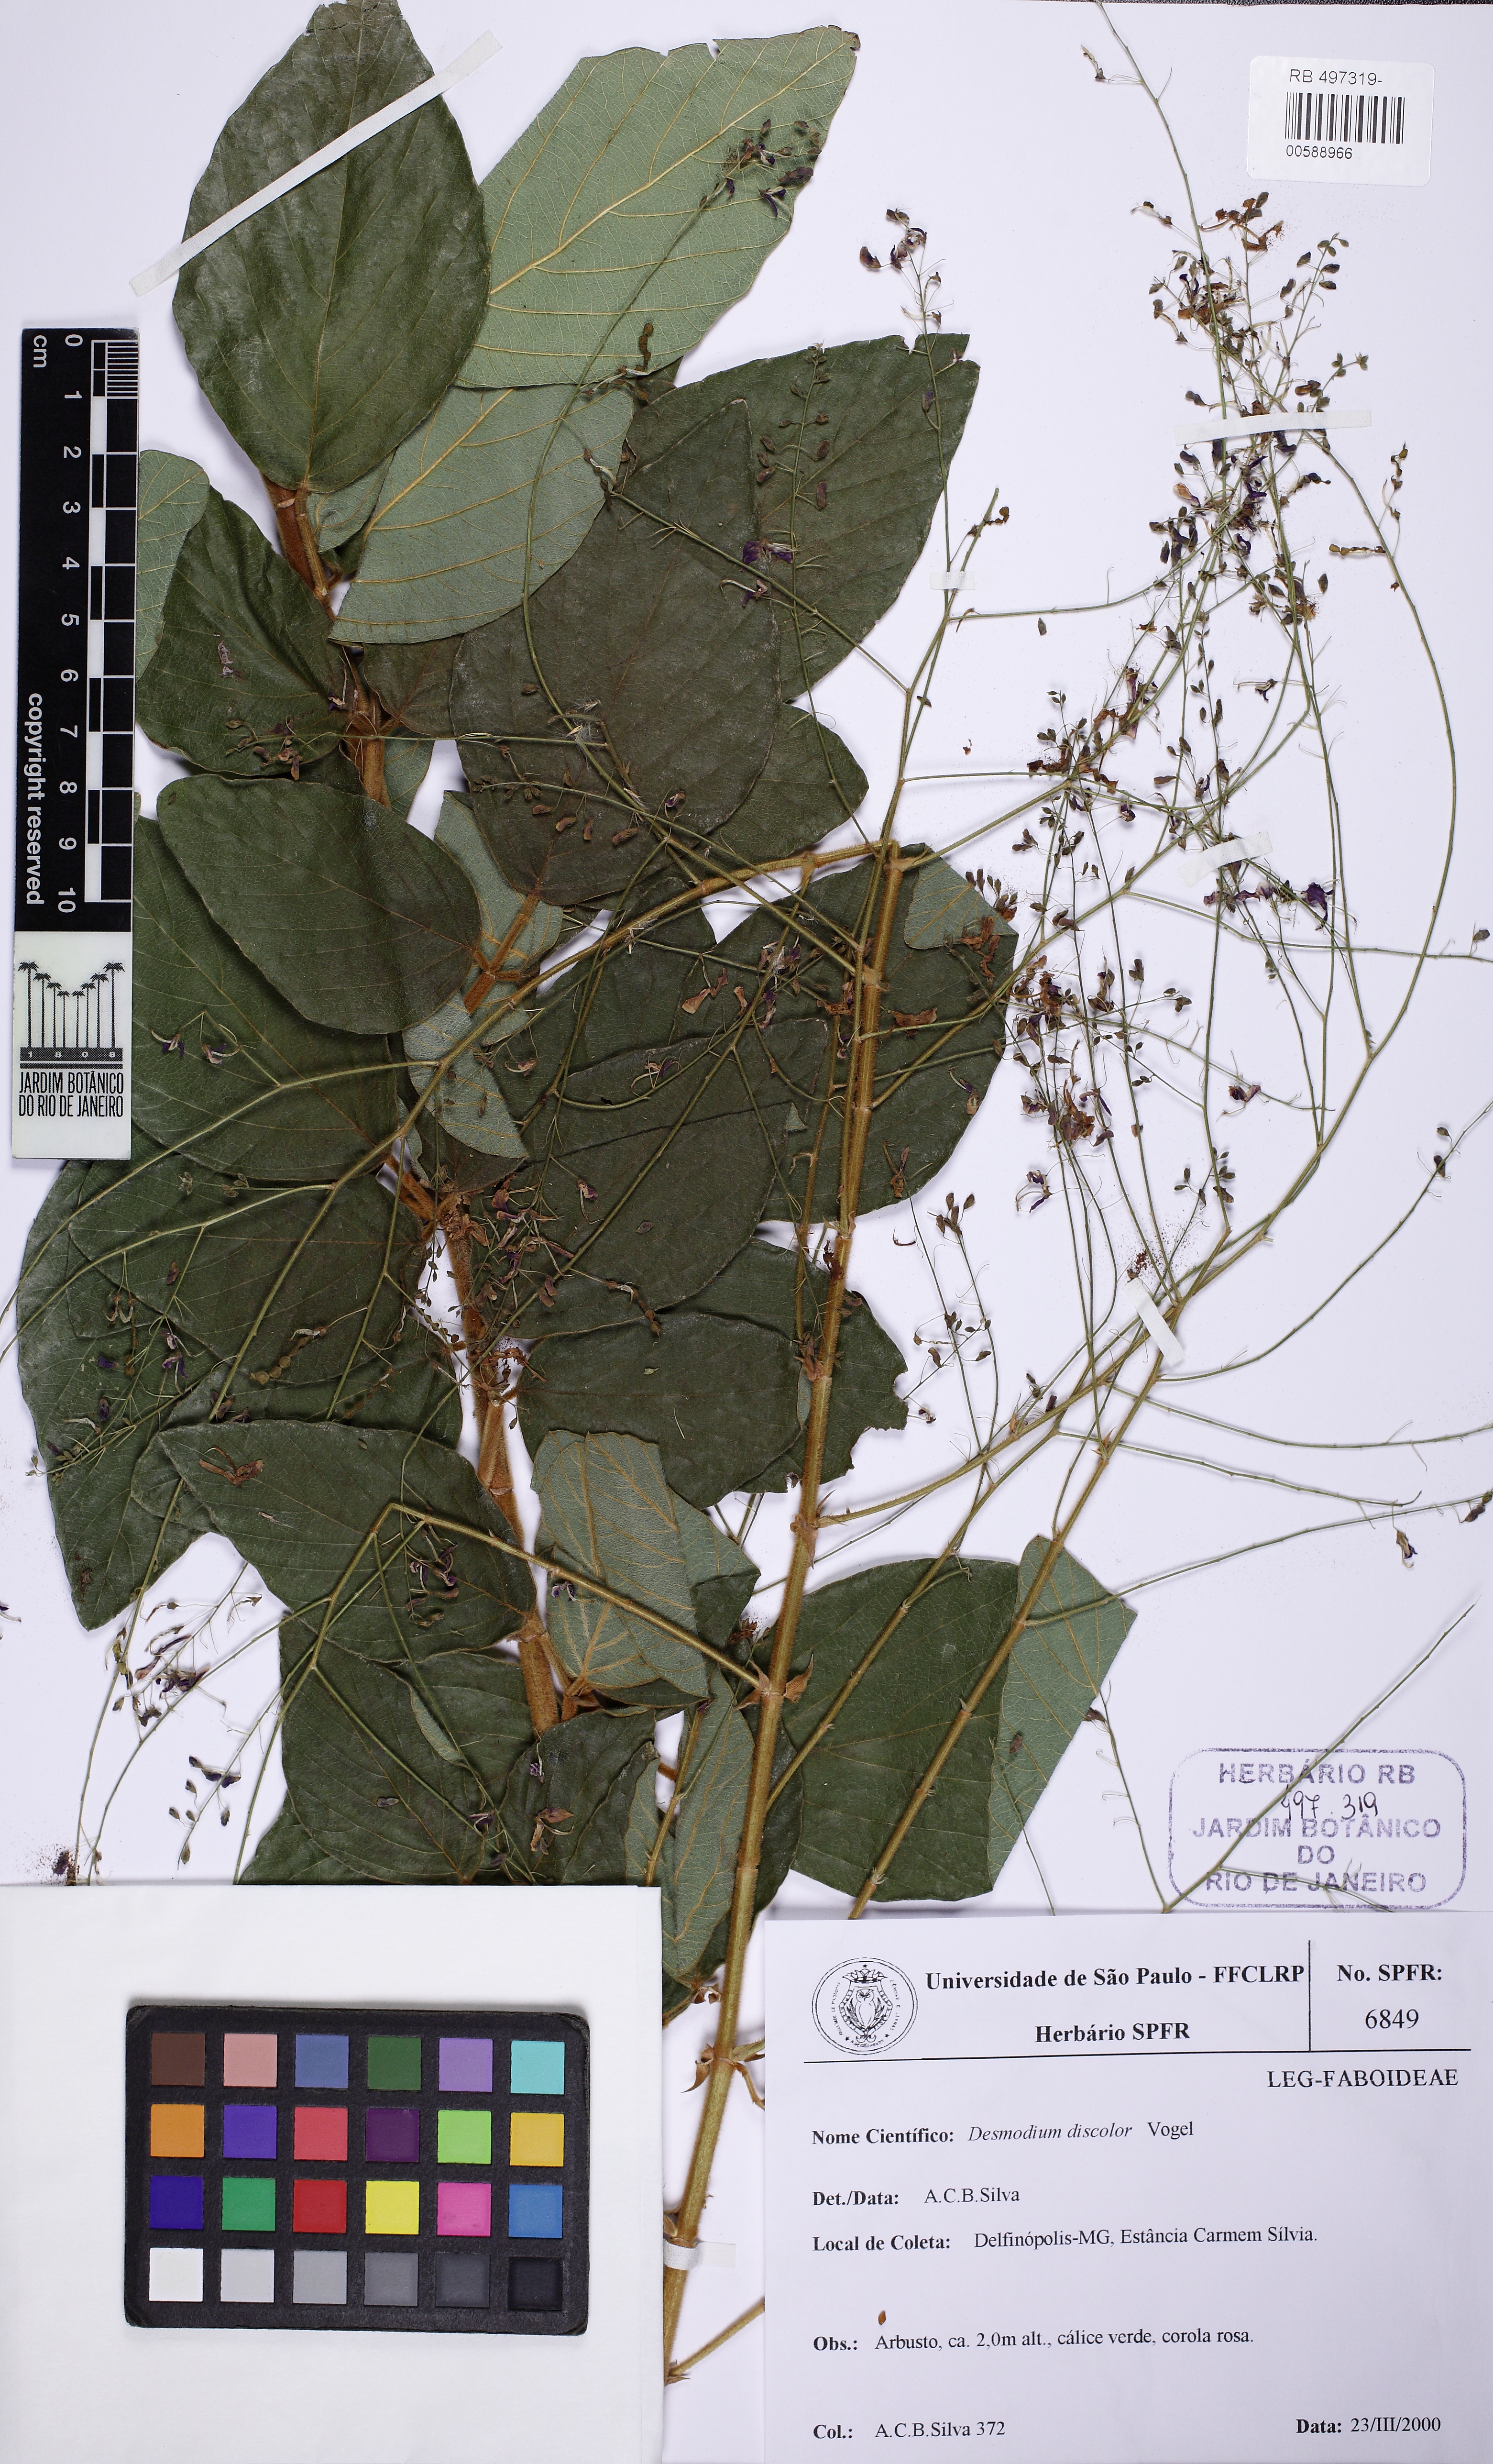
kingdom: Plantae
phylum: Tracheophyta
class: Magnoliopsida
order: Fabales
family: Fabaceae
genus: Desmodium
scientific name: Desmodium subsecundum
